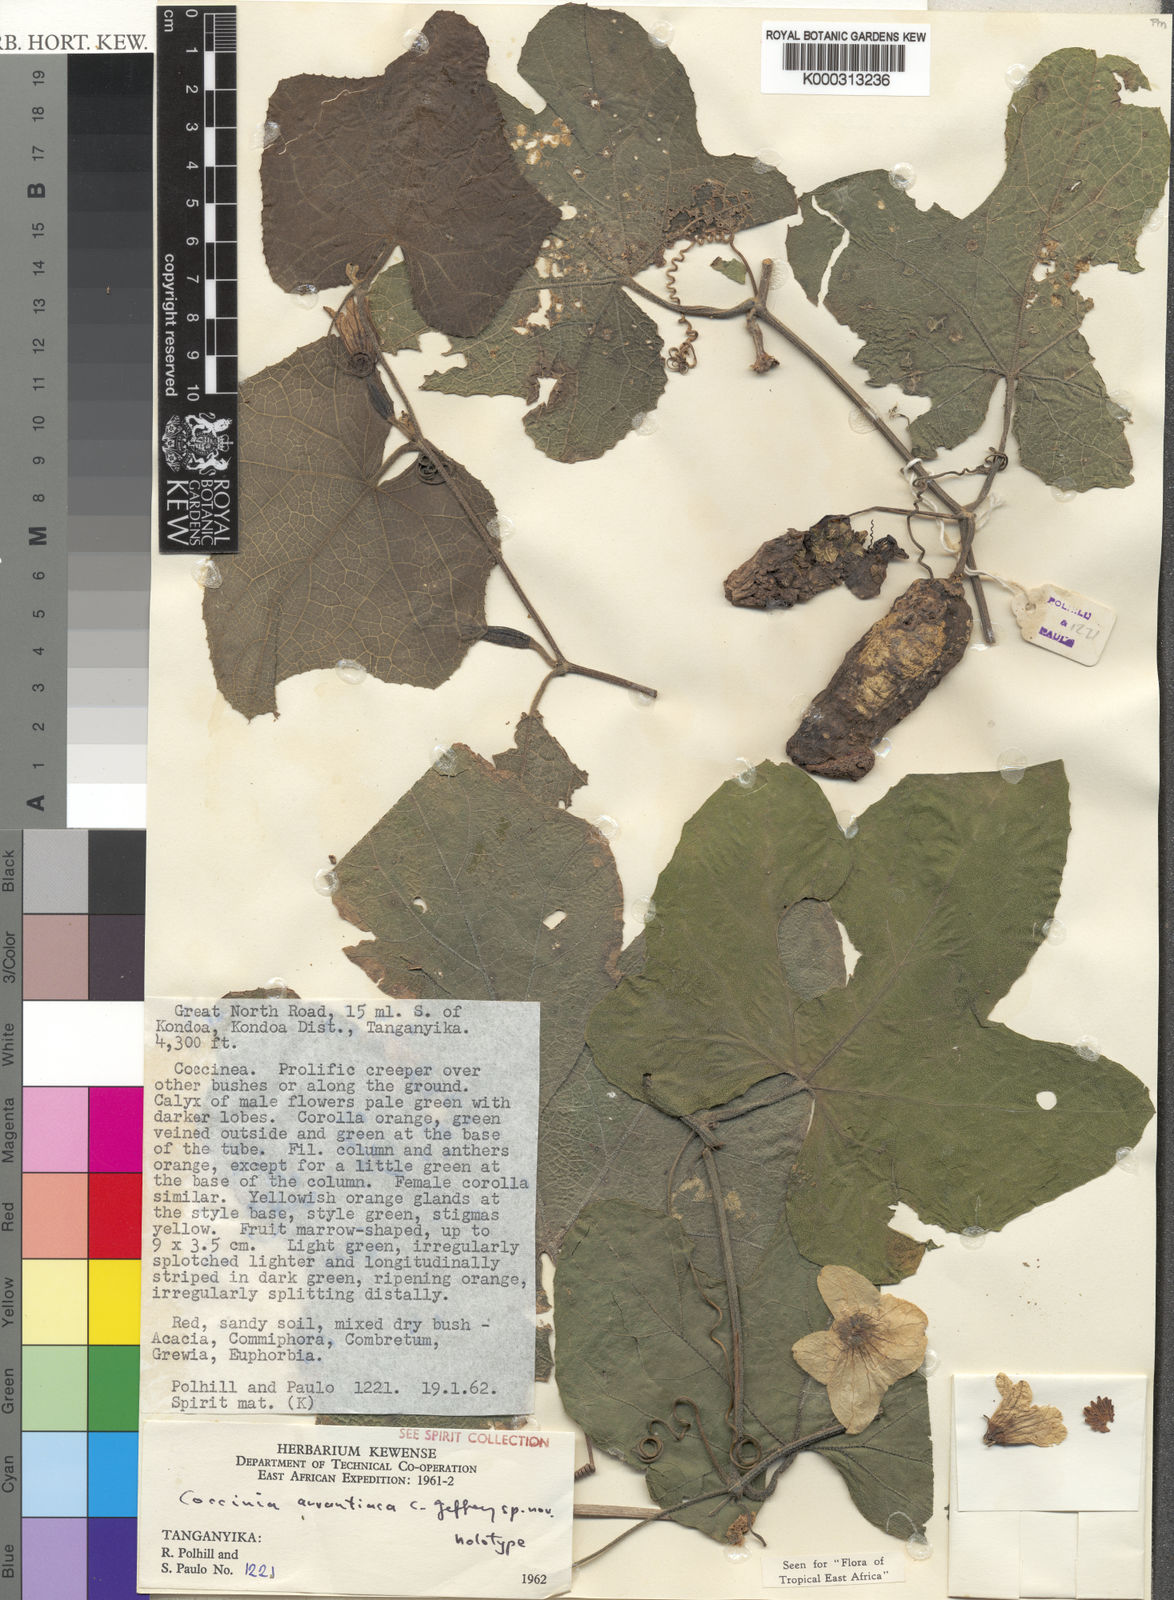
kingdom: Plantae
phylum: Tracheophyta
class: Magnoliopsida
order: Cucurbitales
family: Cucurbitaceae
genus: Coccinia
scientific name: Coccinia adoensis
